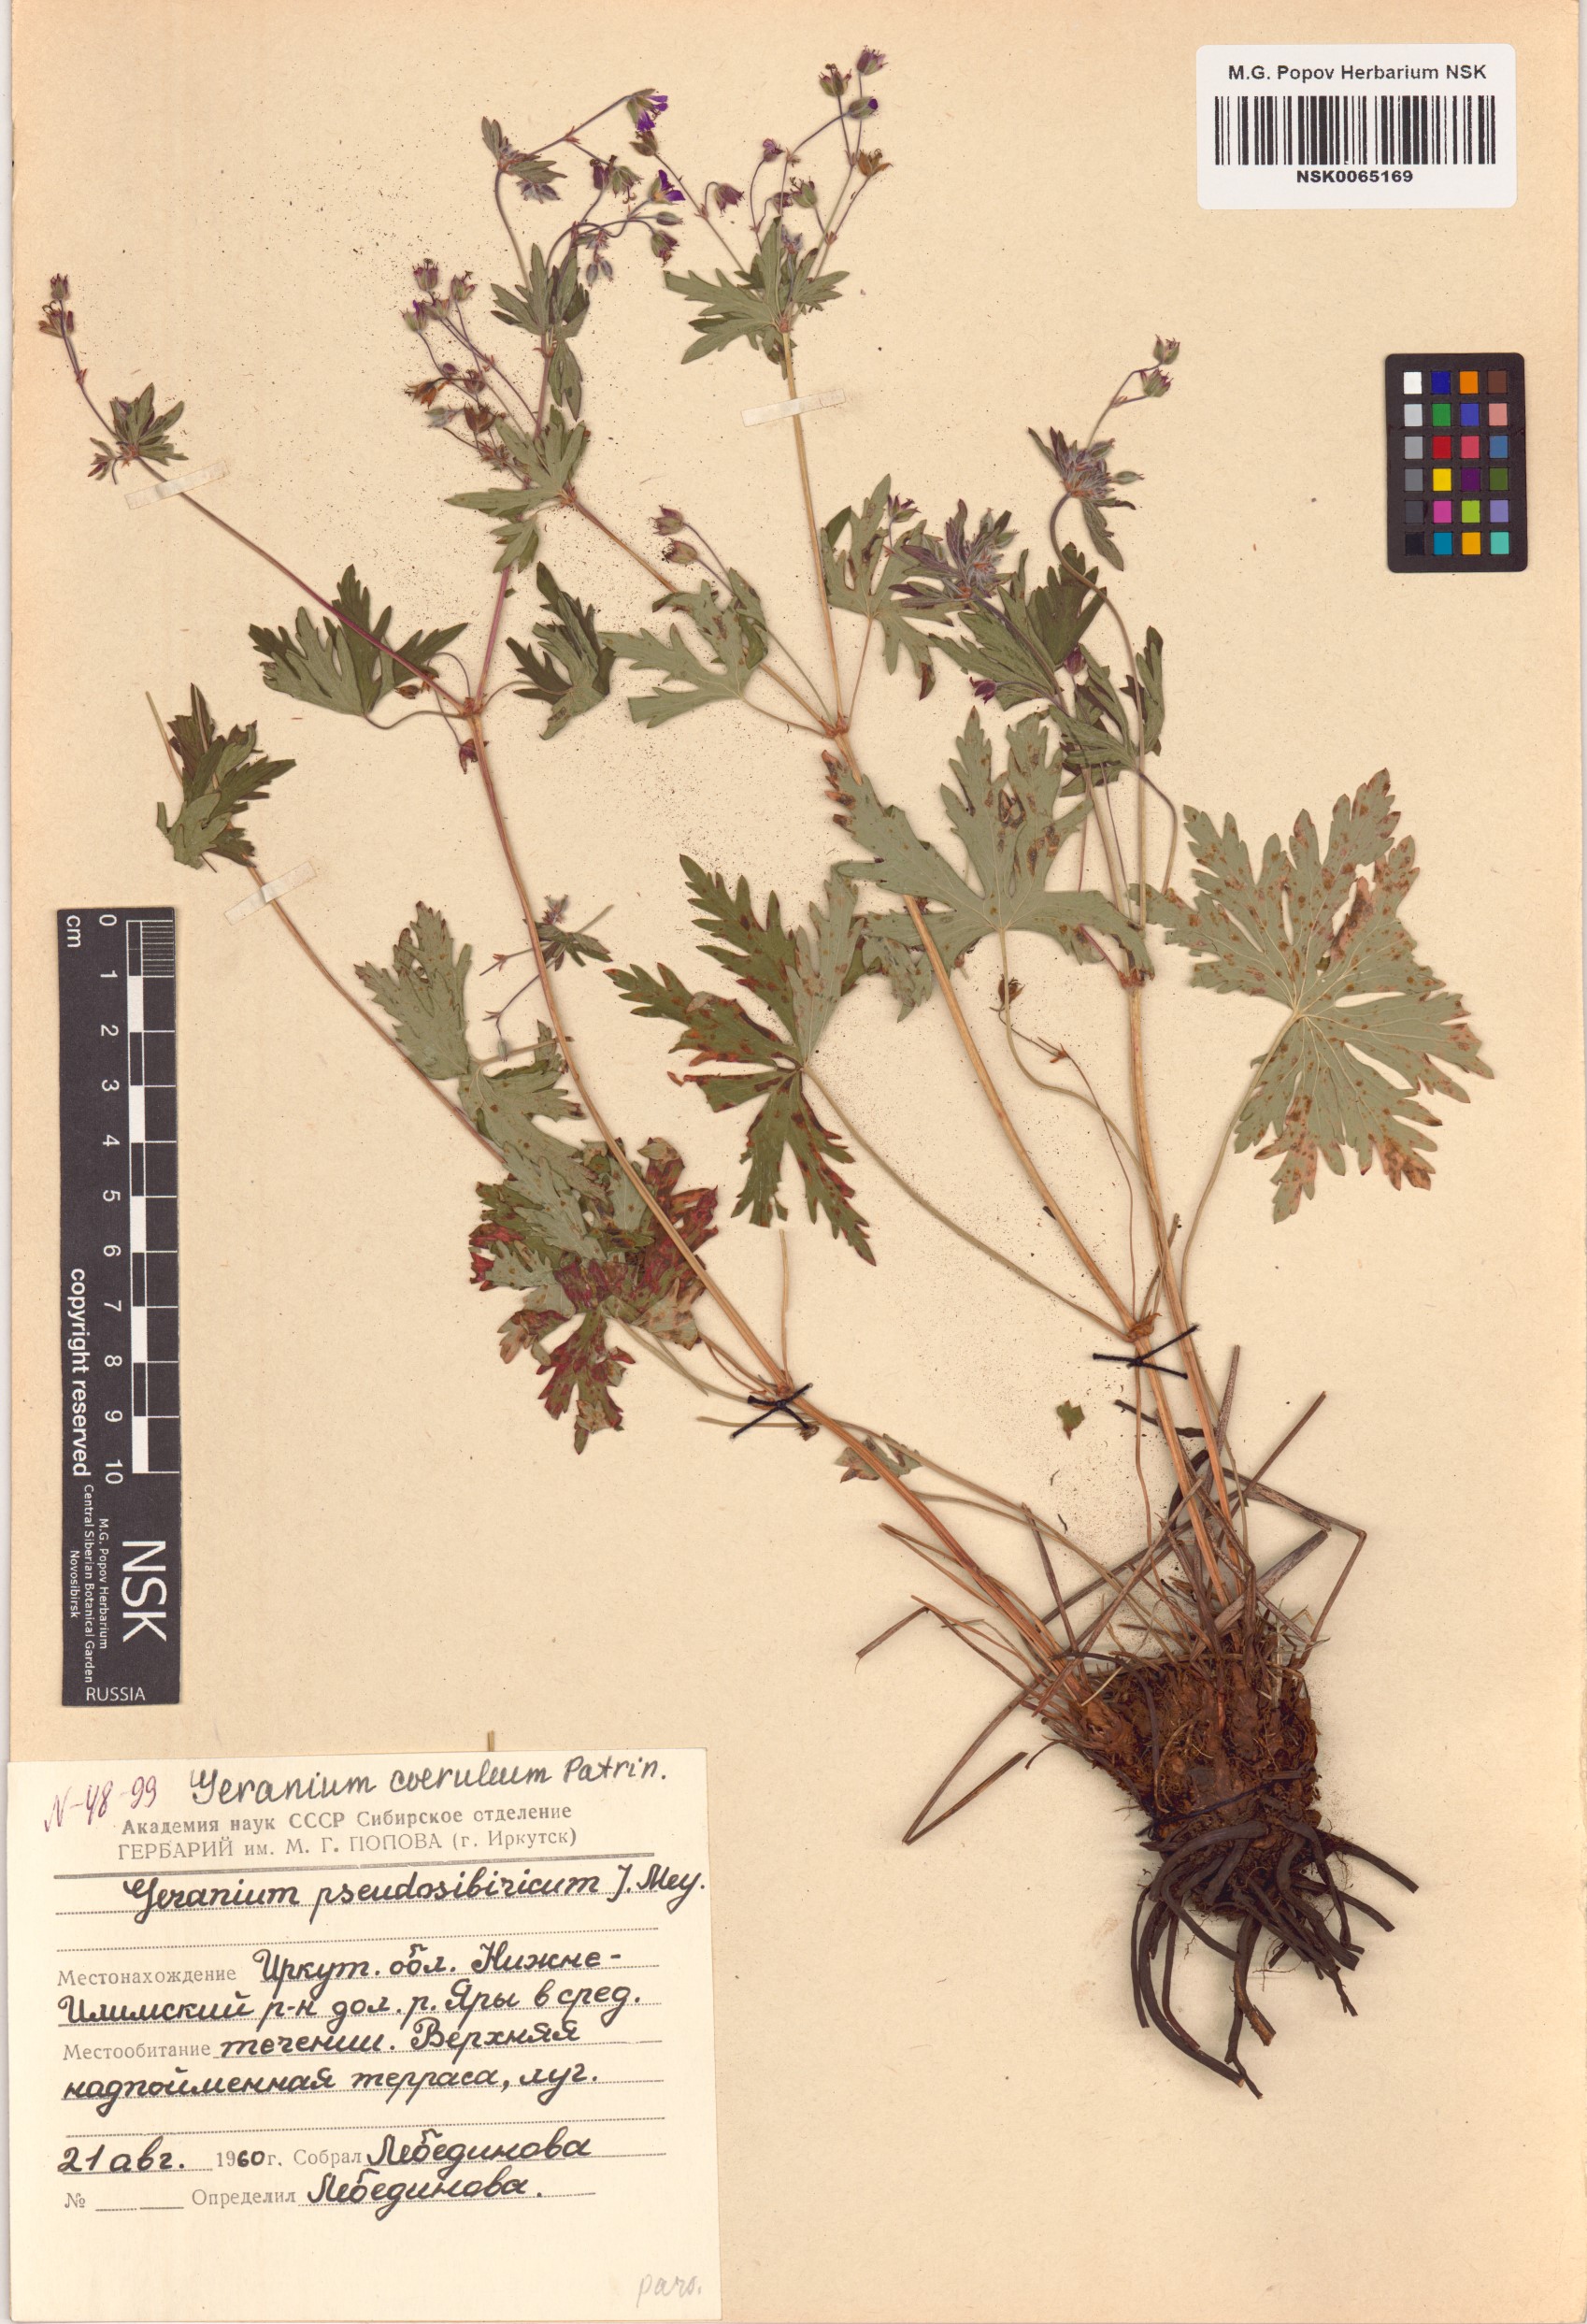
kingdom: Plantae
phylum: Tracheophyta
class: Magnoliopsida
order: Geraniales
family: Geraniaceae
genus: Geranium
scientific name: Geranium pseudosibiricum
